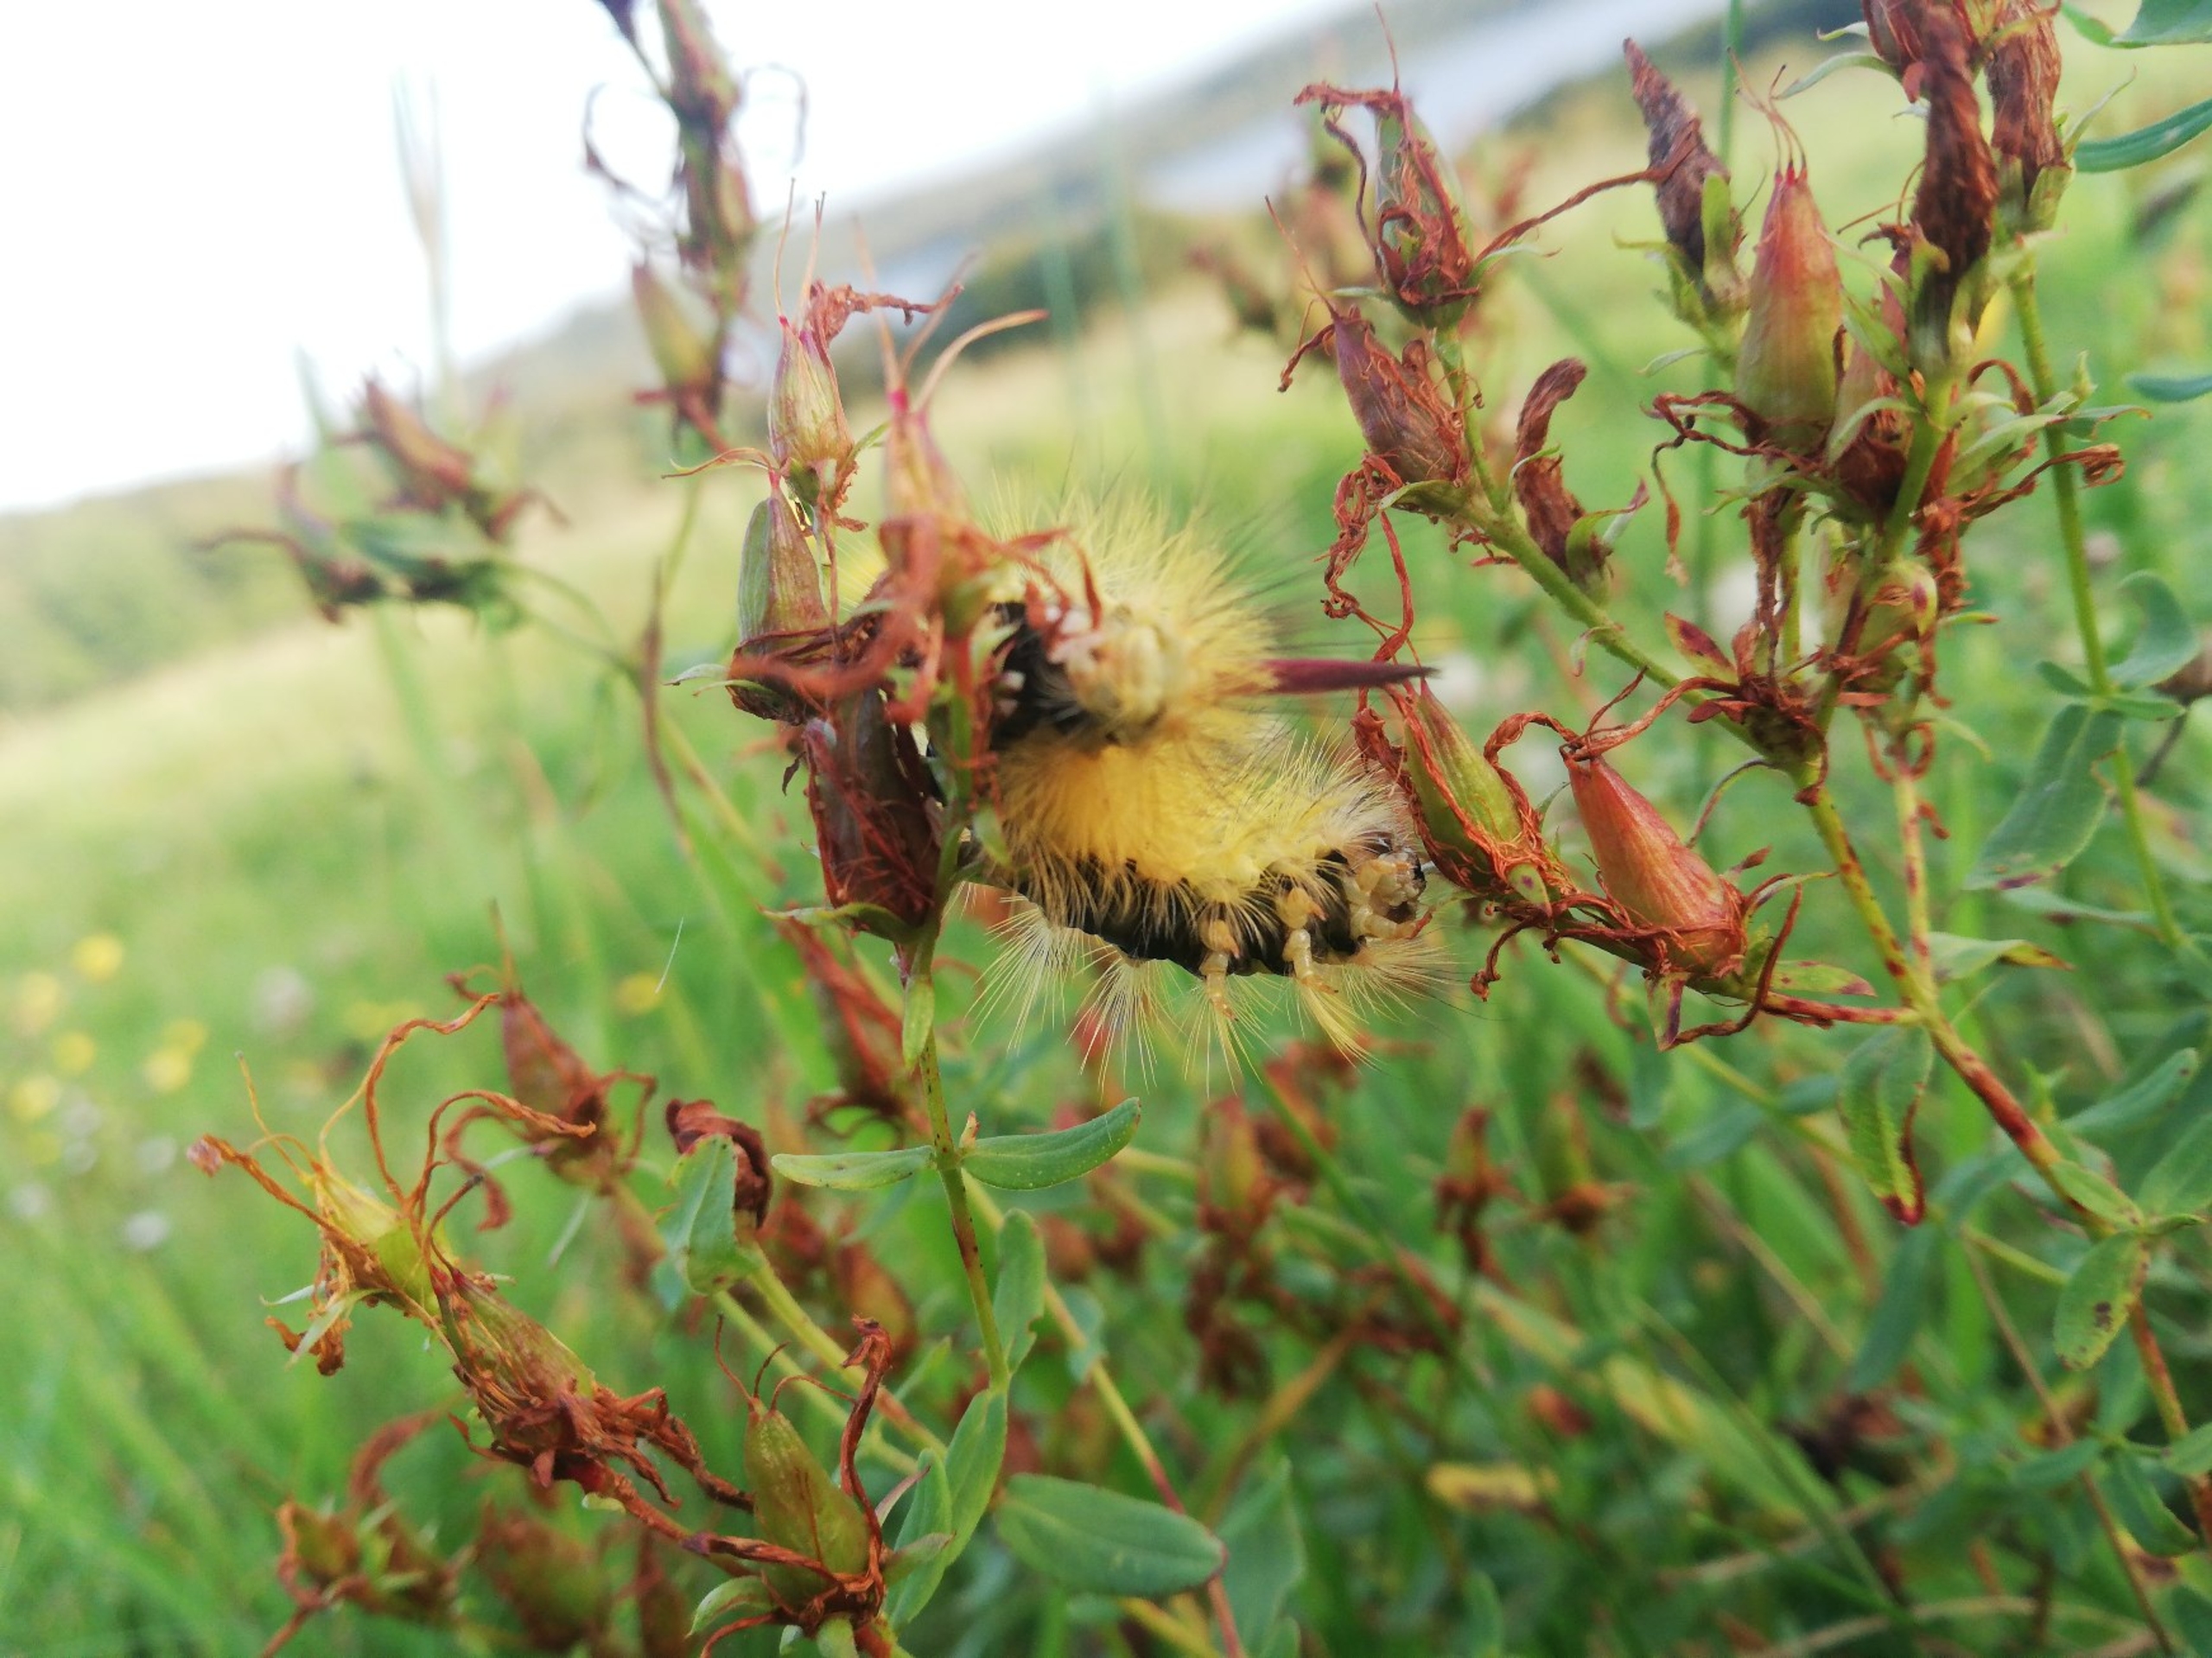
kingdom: Animalia
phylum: Arthropoda
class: Insecta
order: Lepidoptera
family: Erebidae
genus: Calliteara
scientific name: Calliteara pudibunda
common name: Bøgenonne
